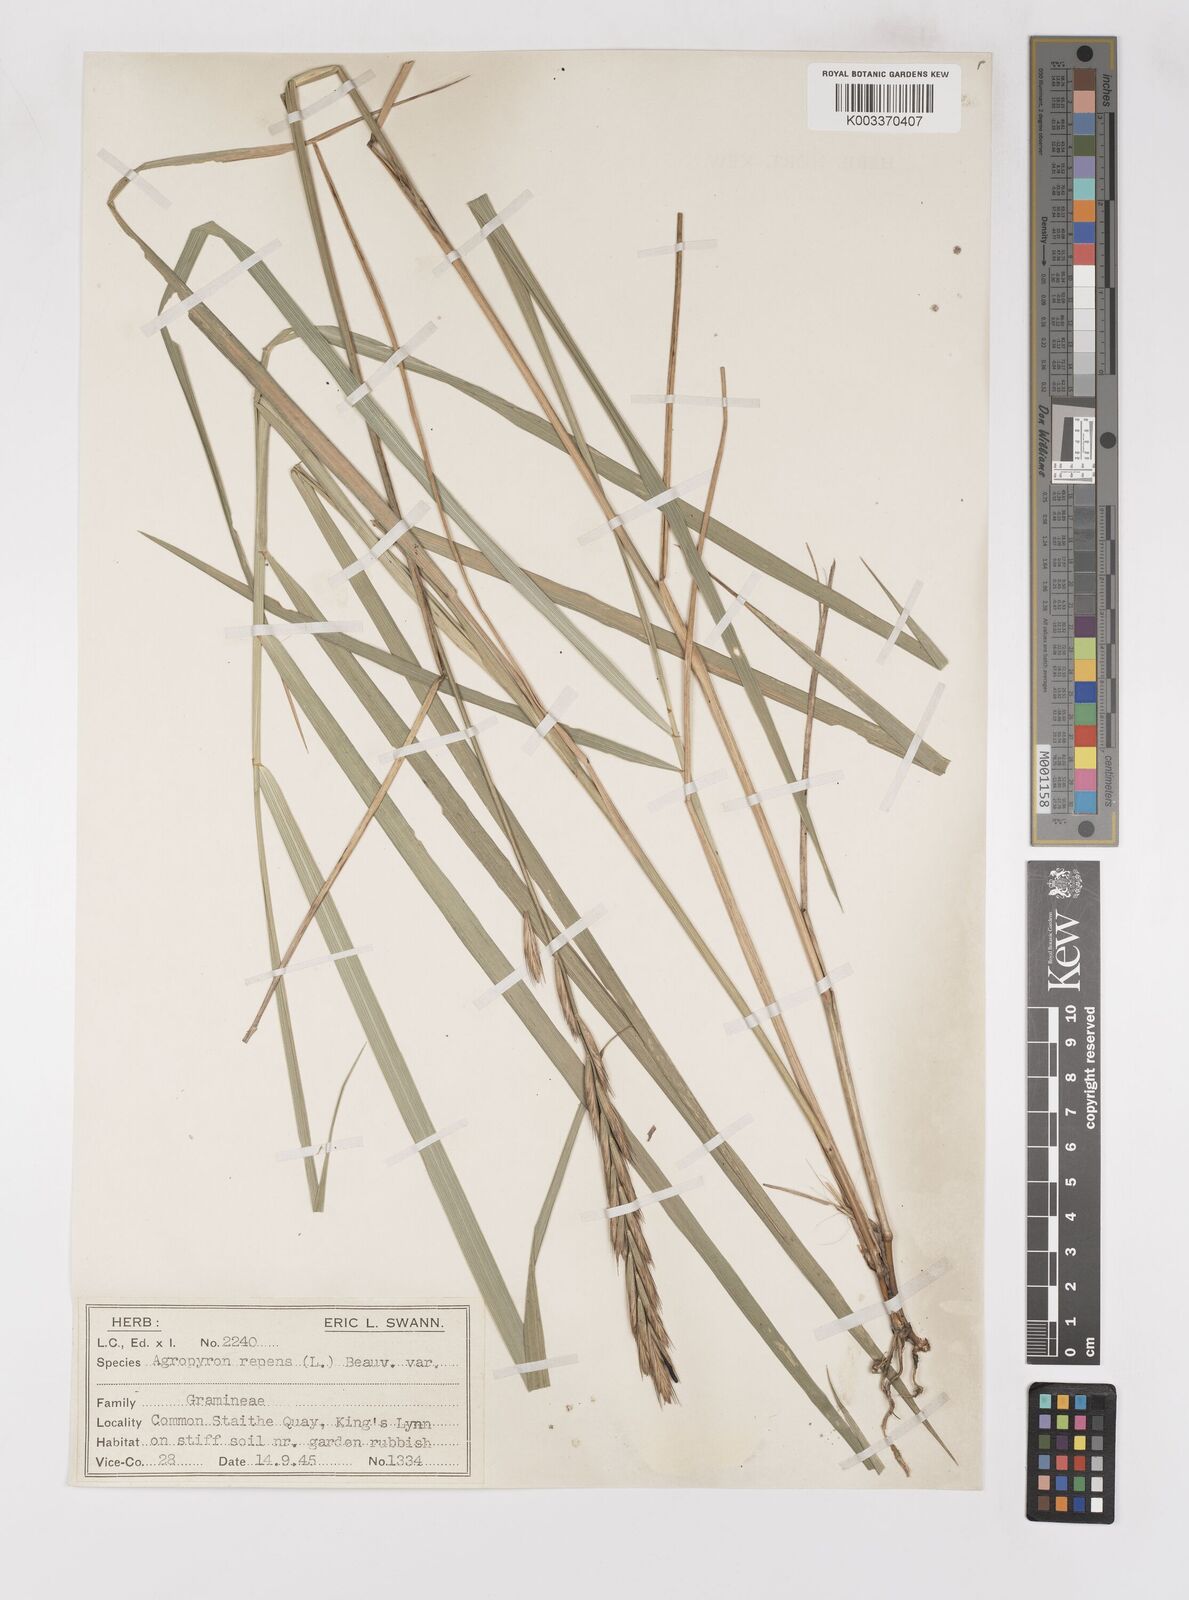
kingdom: Plantae
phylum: Tracheophyta
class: Liliopsida
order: Poales
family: Poaceae
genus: Elymus
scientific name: Elymus oliveri
